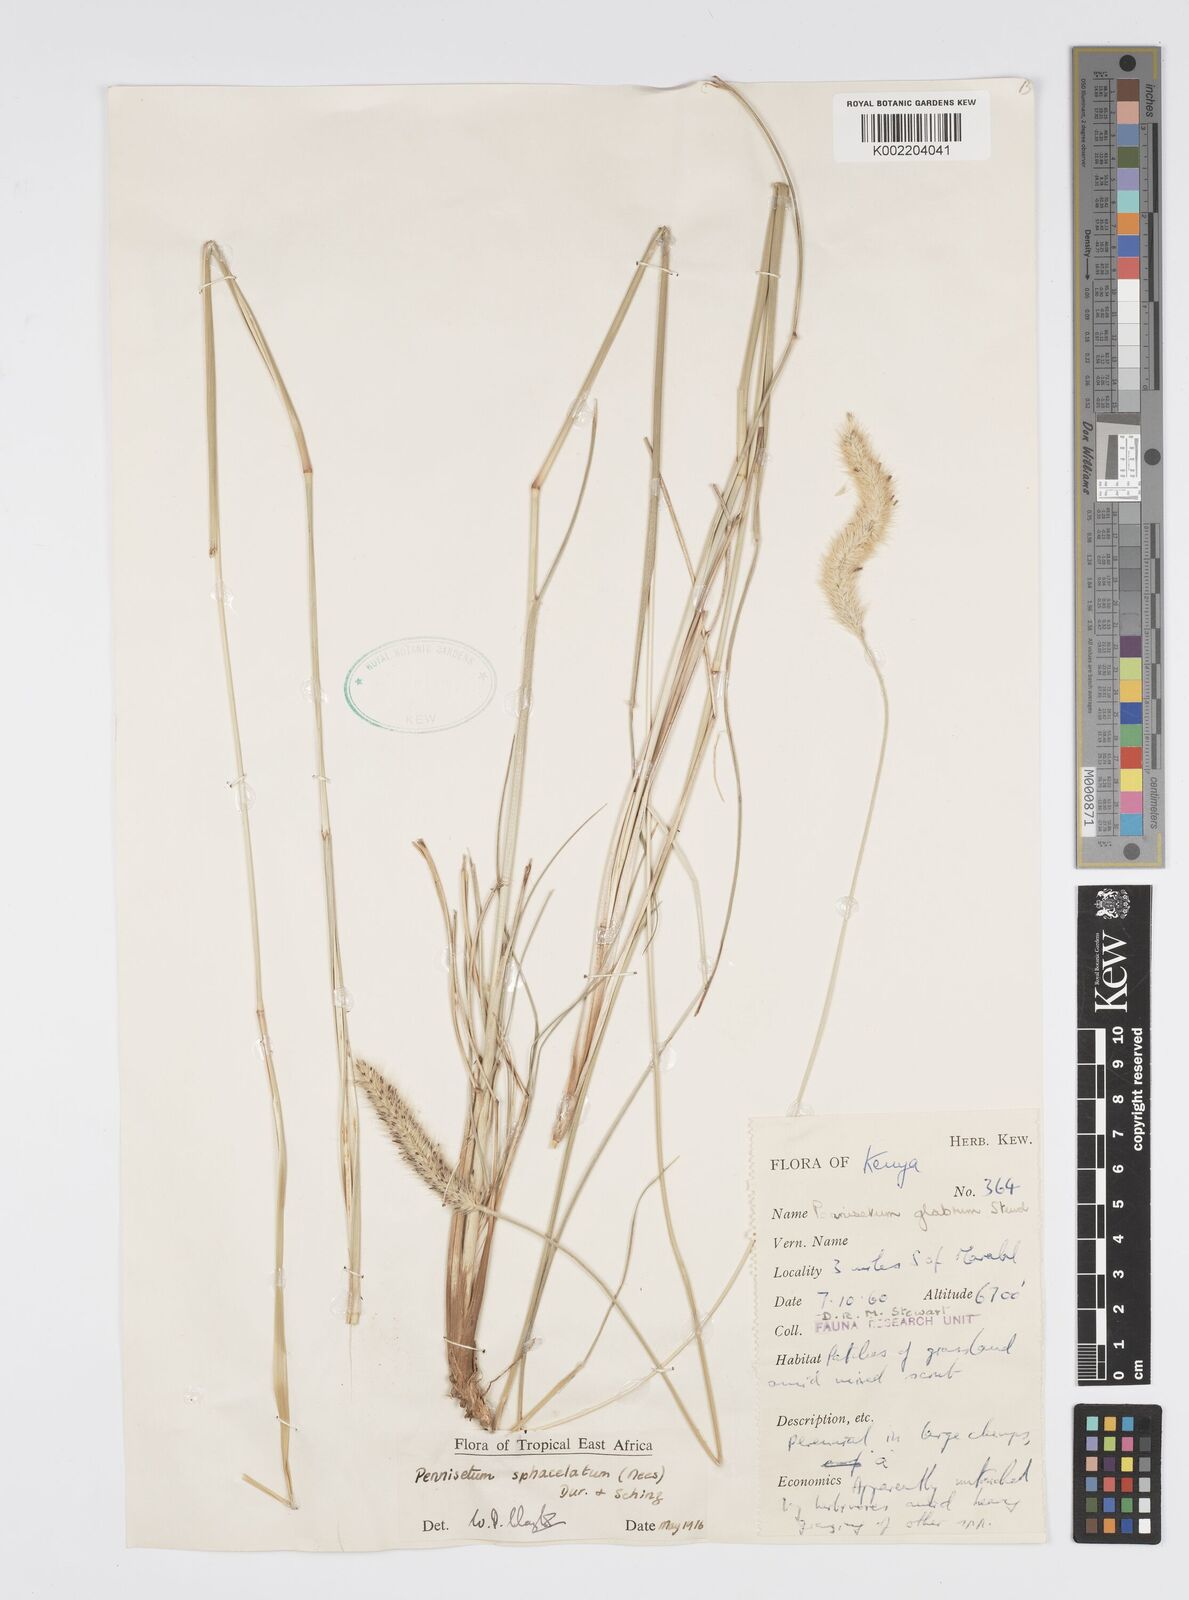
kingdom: Plantae
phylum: Tracheophyta
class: Liliopsida
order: Poales
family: Poaceae
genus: Cenchrus
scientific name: Cenchrus sphacelatus
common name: Bulgras
